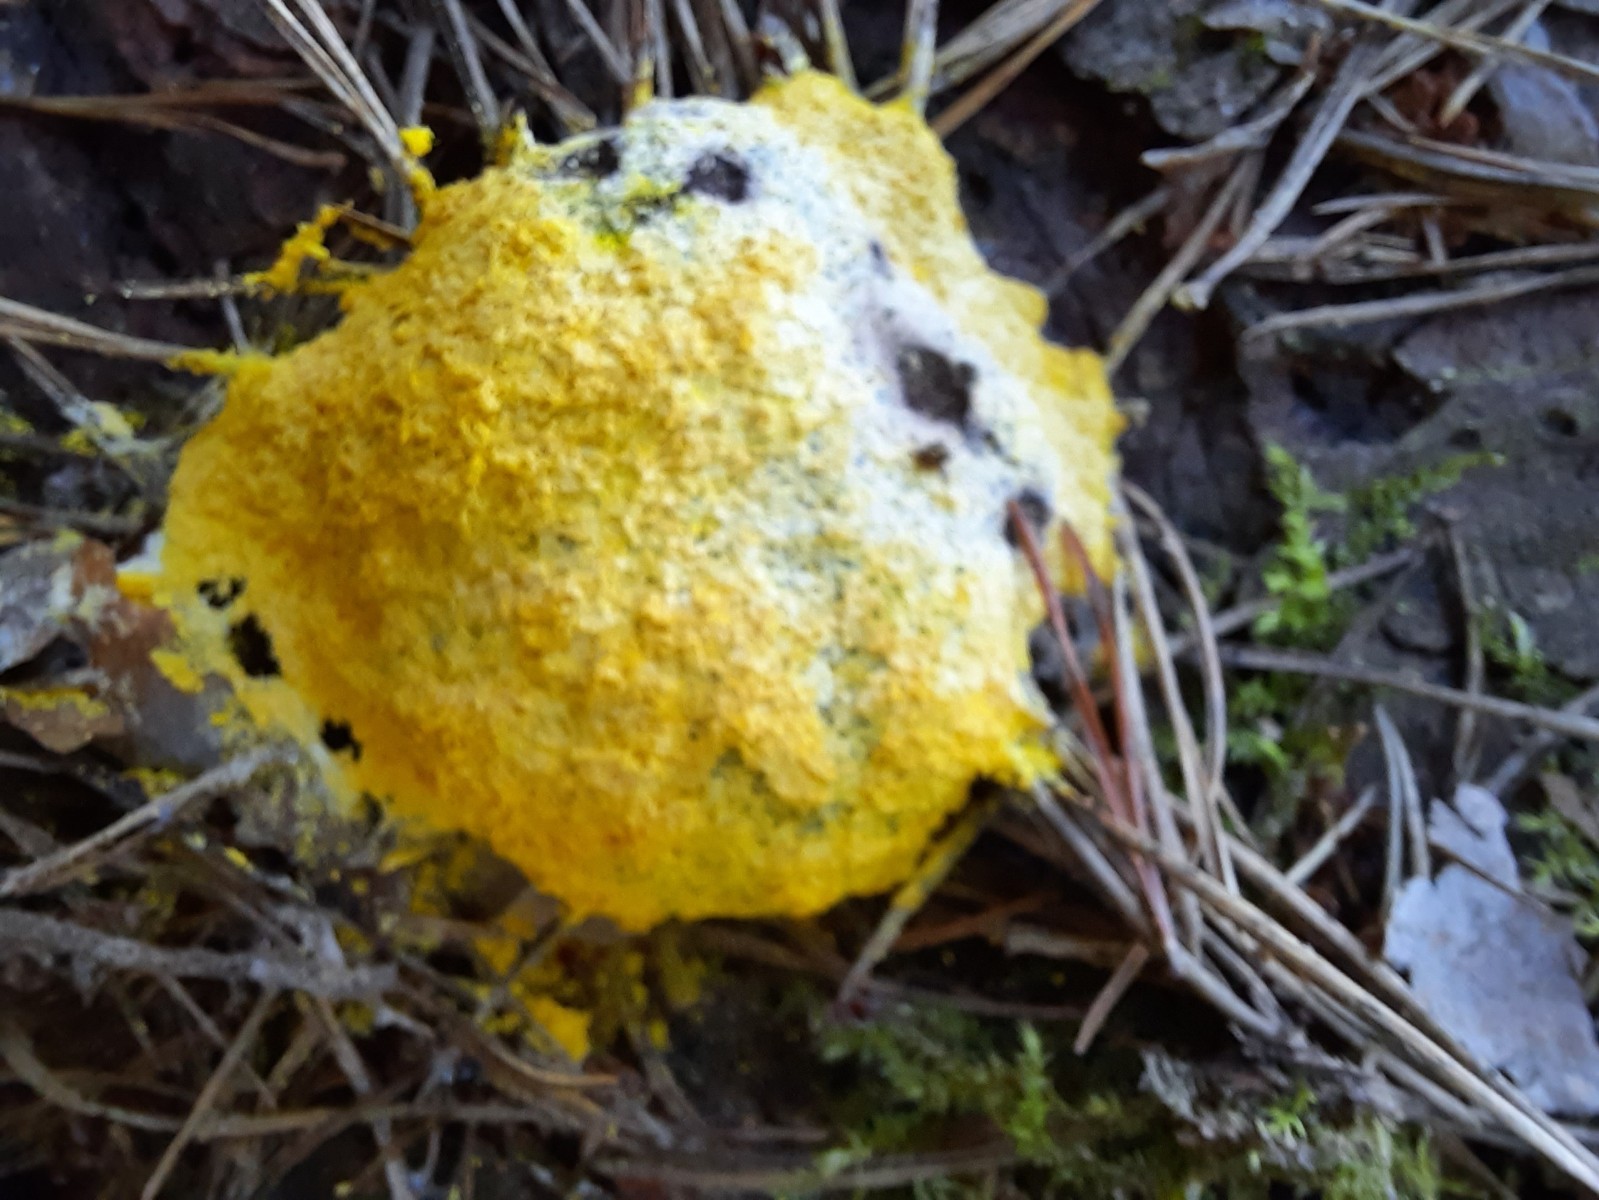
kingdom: Protozoa
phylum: Mycetozoa
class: Myxomycetes
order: Physarales
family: Physaraceae
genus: Fuligo
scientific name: Fuligo septica
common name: gul troldsmør
